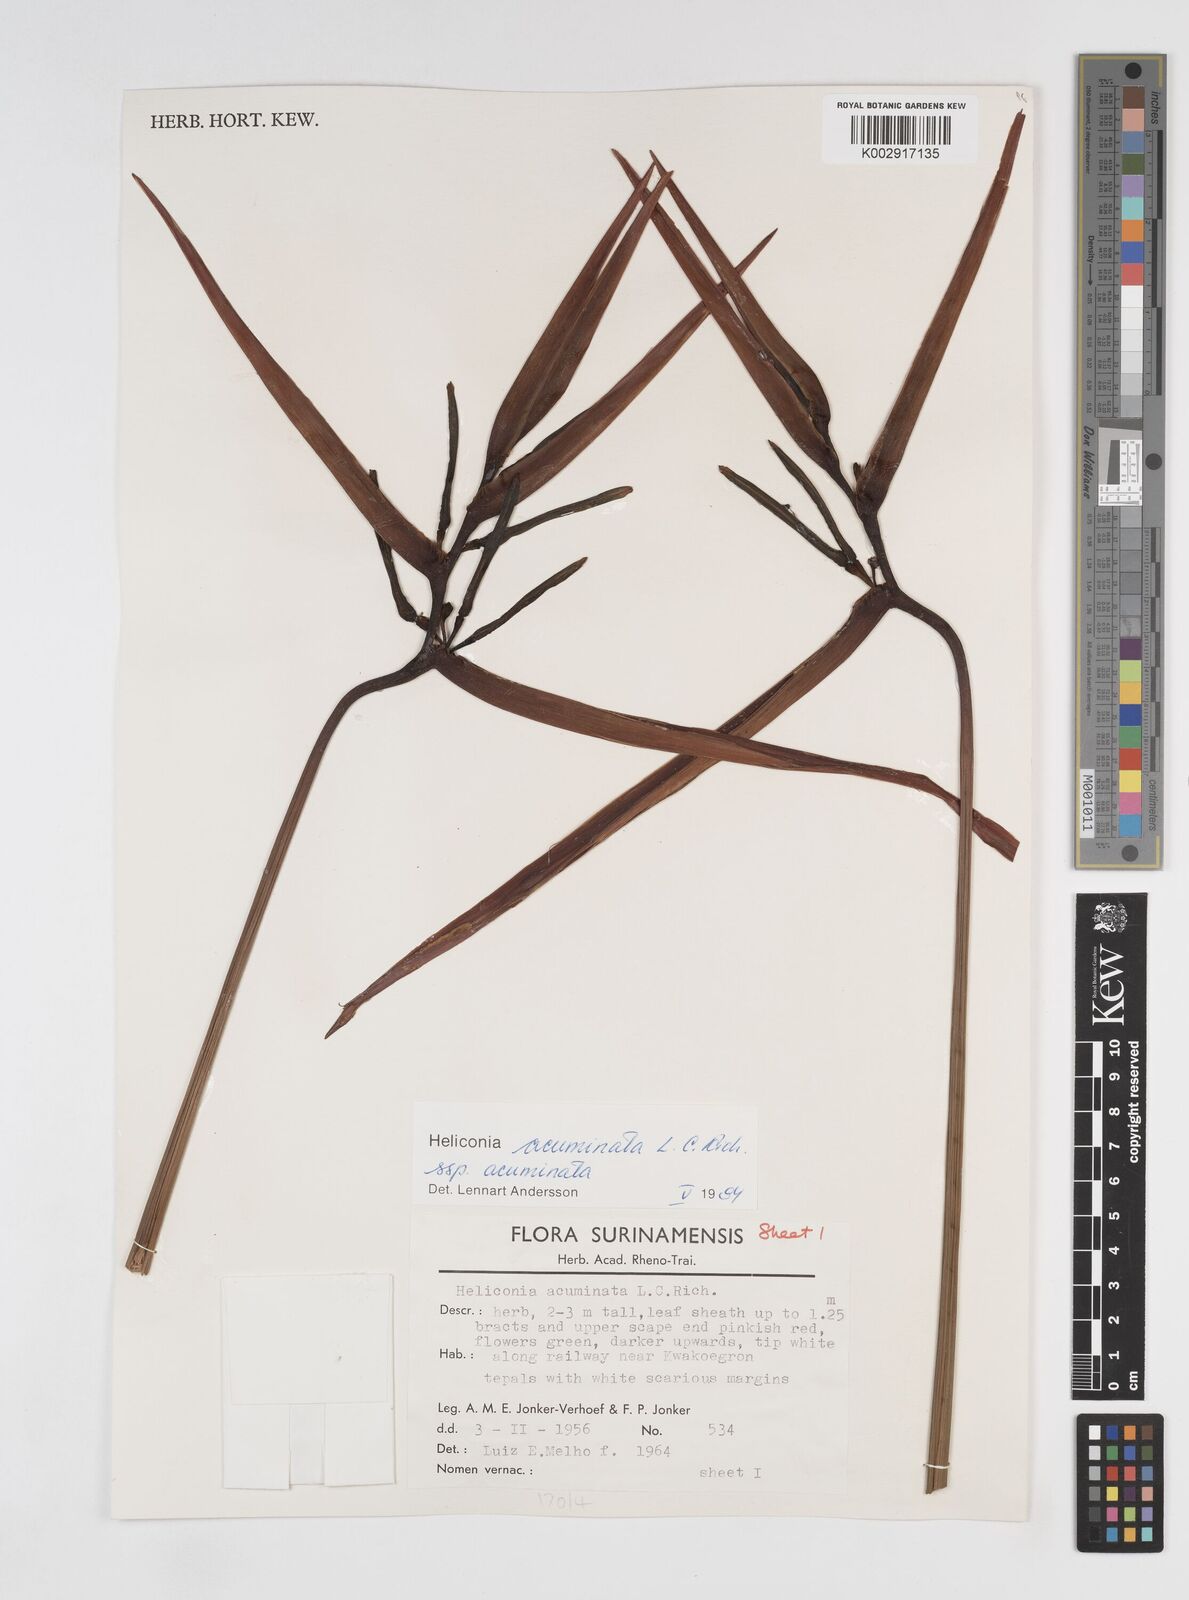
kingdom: Plantae
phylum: Tracheophyta
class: Liliopsida
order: Zingiberales
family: Heliconiaceae
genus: Heliconia
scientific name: Heliconia acuminata
